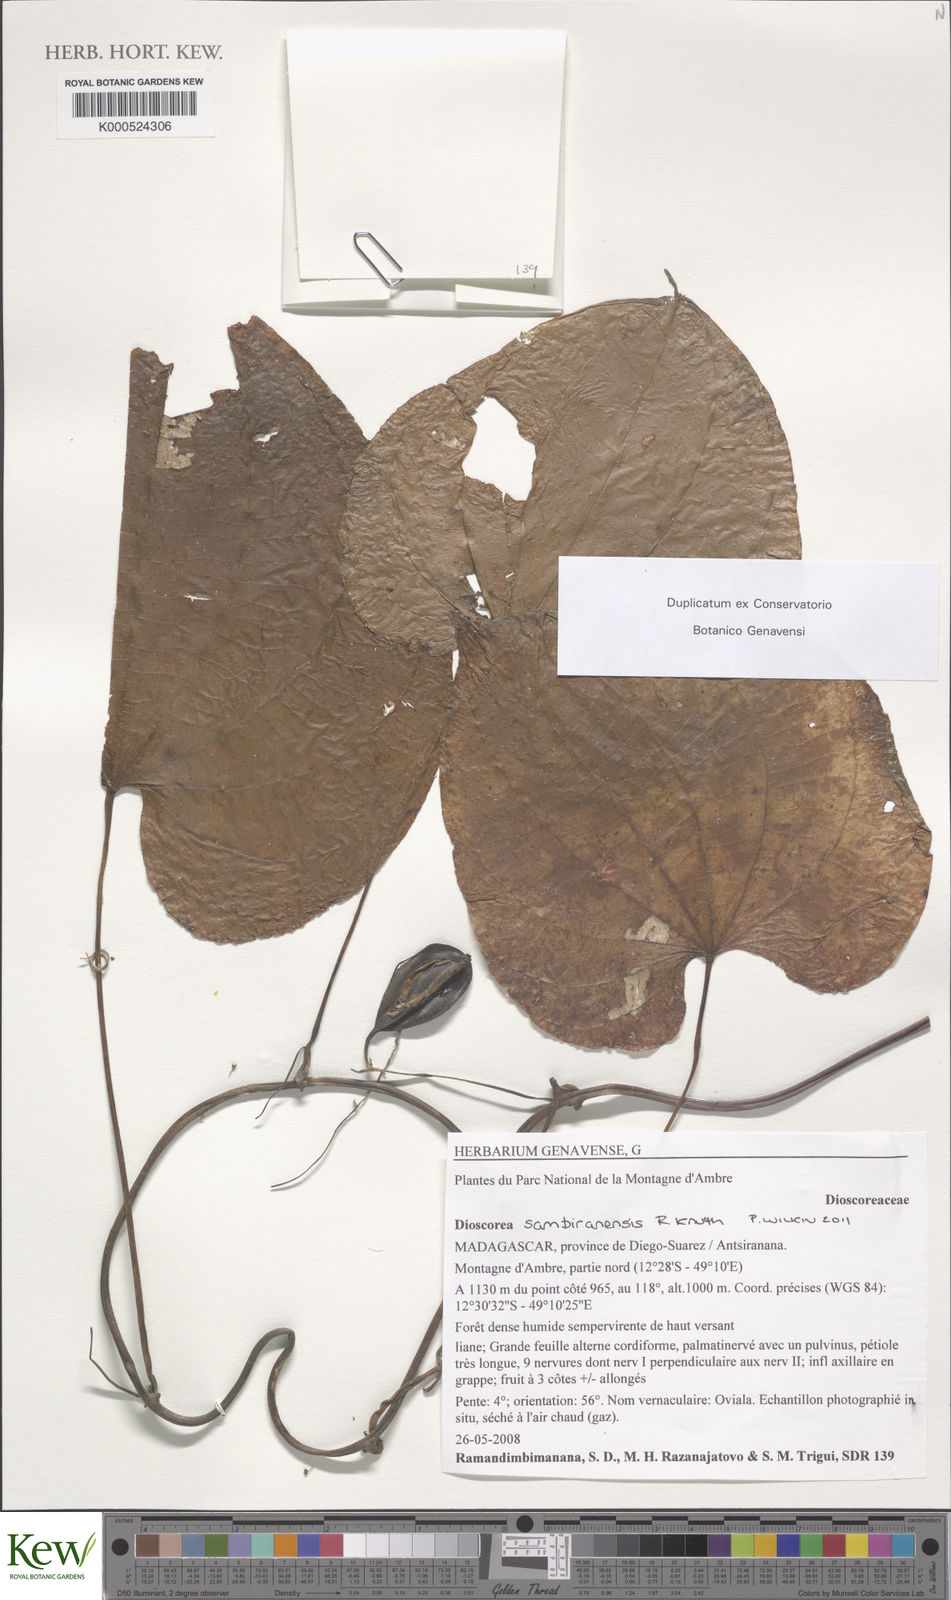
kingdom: Plantae
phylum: Tracheophyta
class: Liliopsida
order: Dioscoreales
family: Dioscoreaceae
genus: Dioscorea
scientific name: Dioscorea sambiranensis
